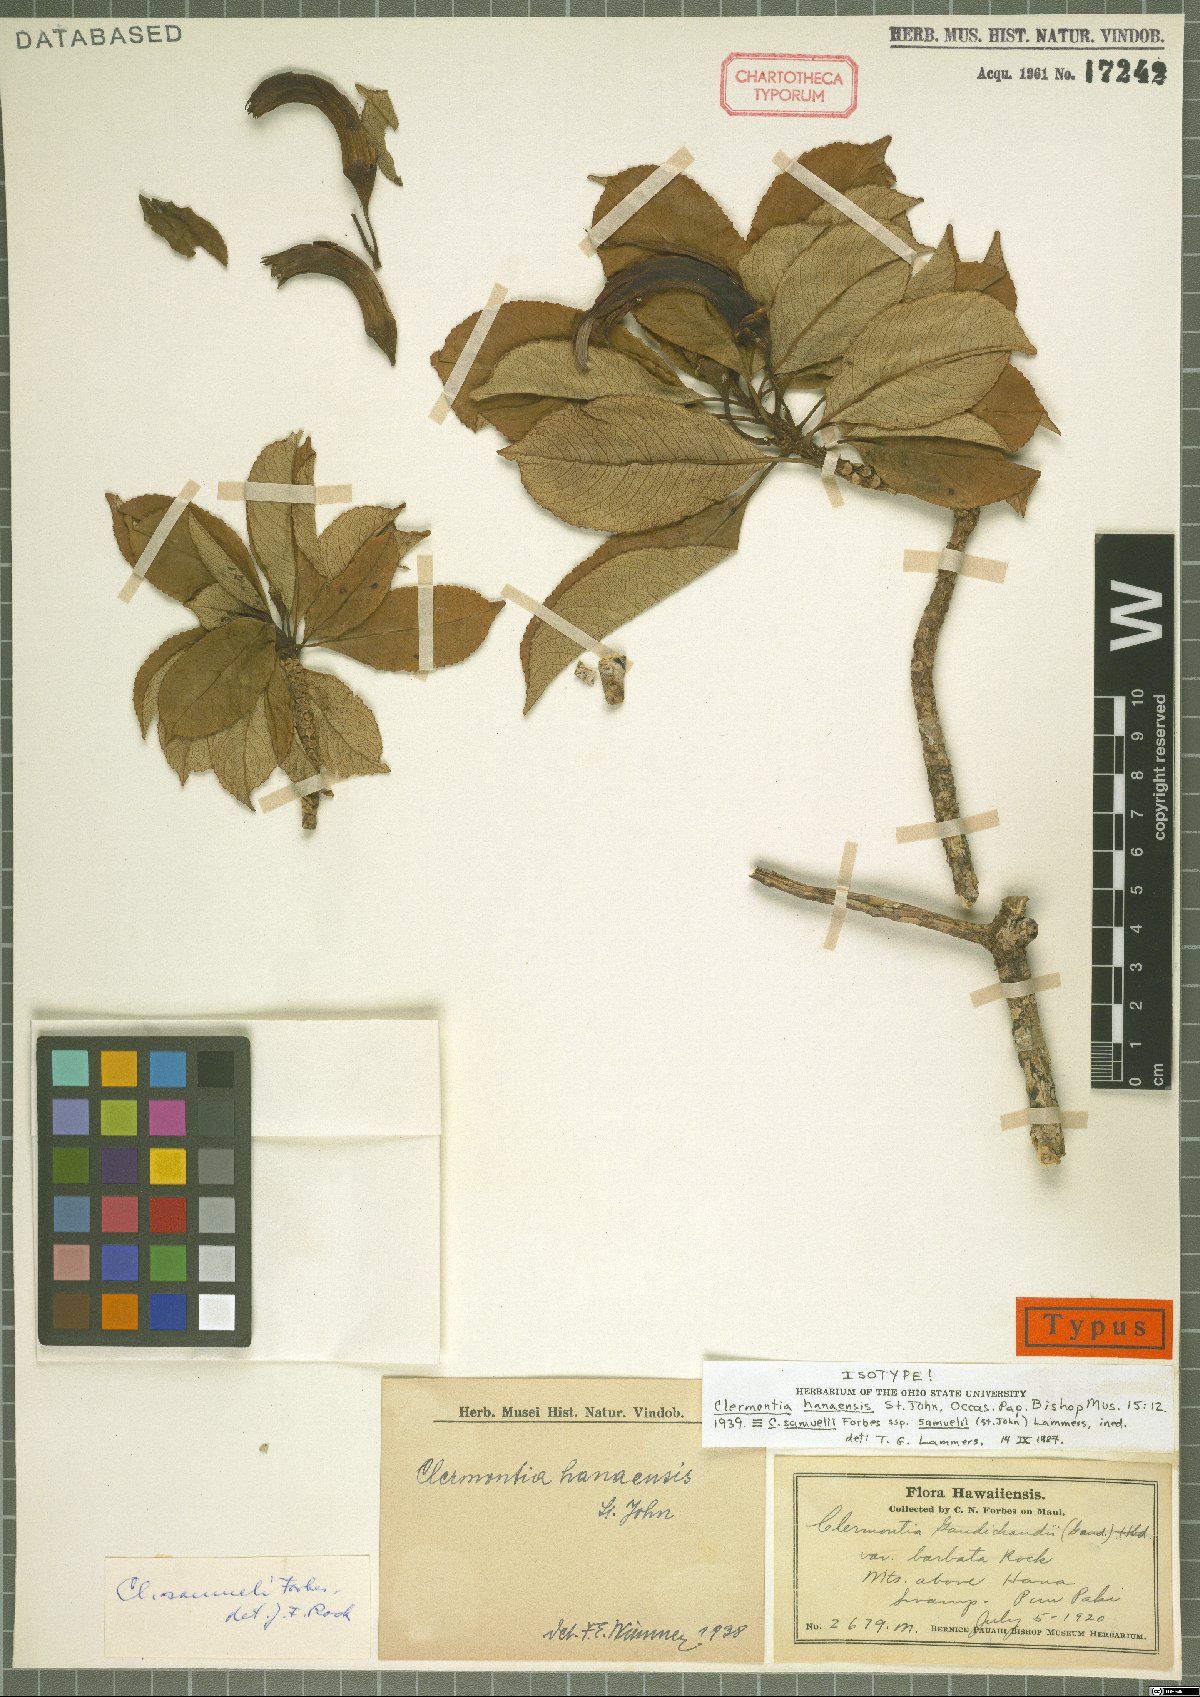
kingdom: Plantae
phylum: Tracheophyta
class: Magnoliopsida
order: Asterales
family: Campanulaceae
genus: Clermontia
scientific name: Clermontia samuelii
